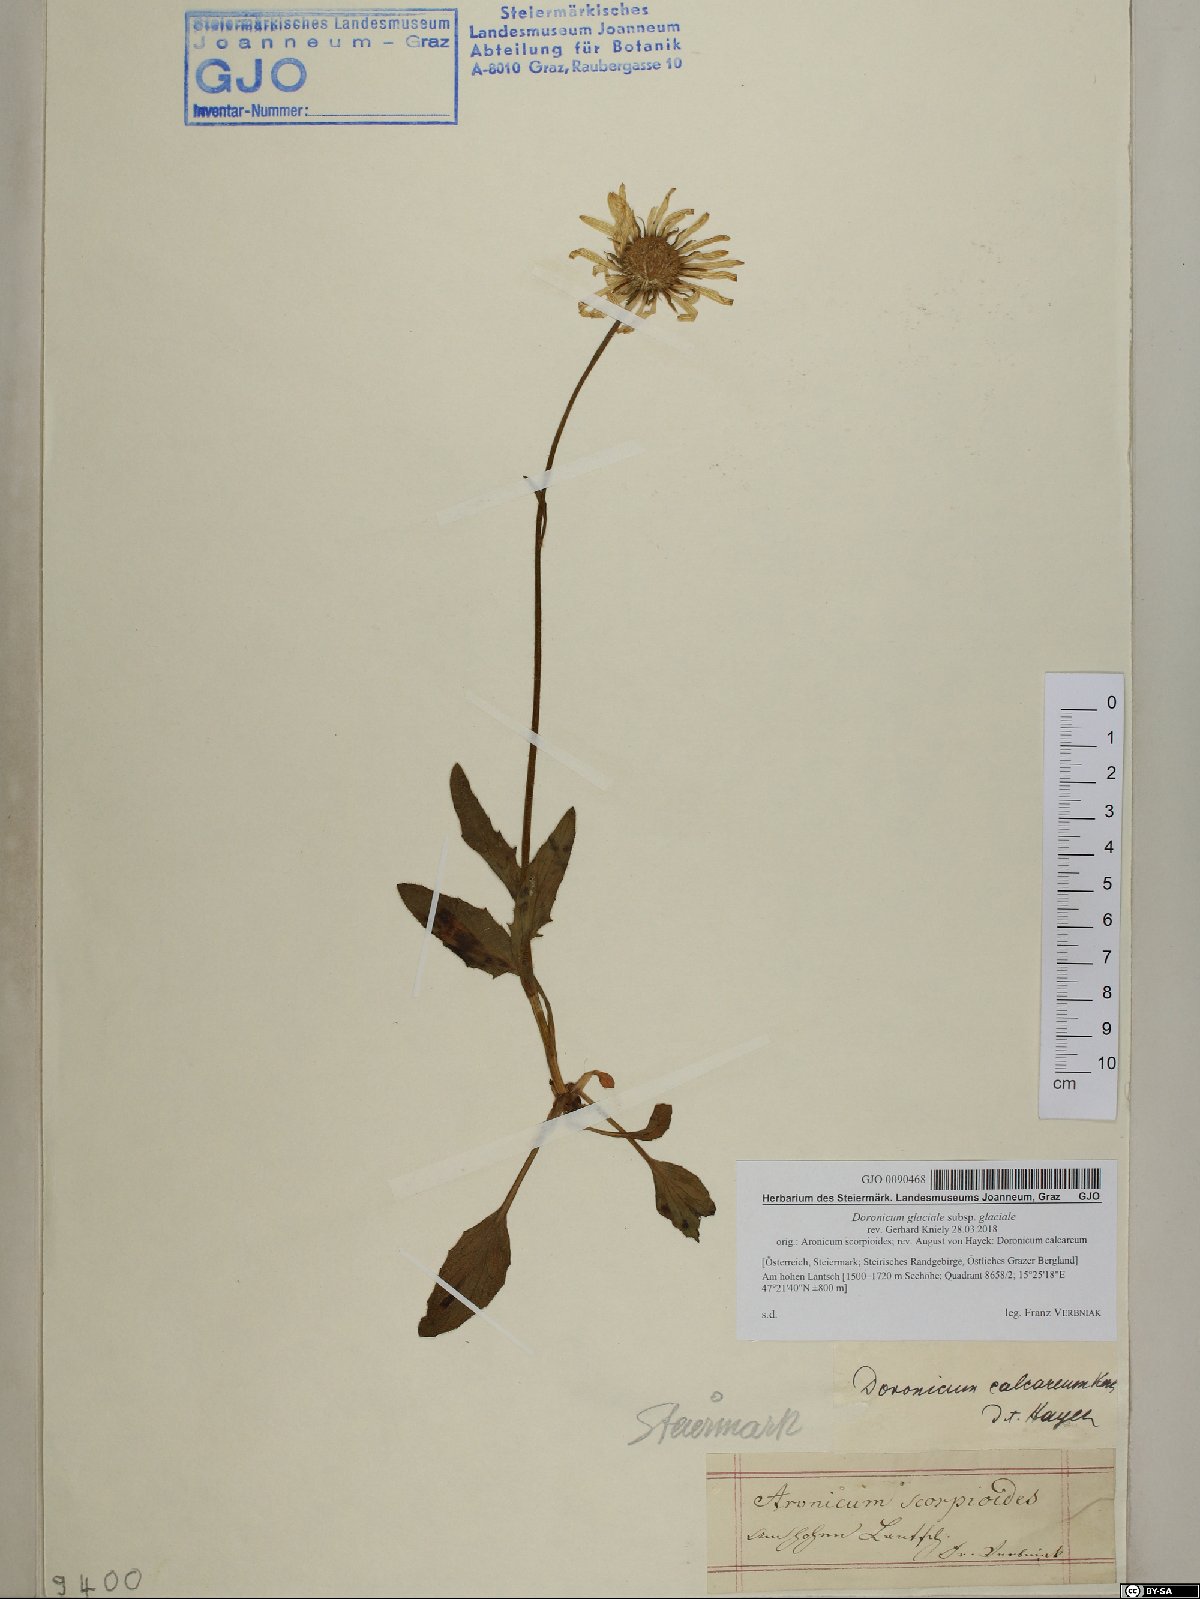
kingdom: Plantae
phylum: Tracheophyta
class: Magnoliopsida
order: Asterales
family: Asteraceae
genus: Doronicum
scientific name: Doronicum glaciale
